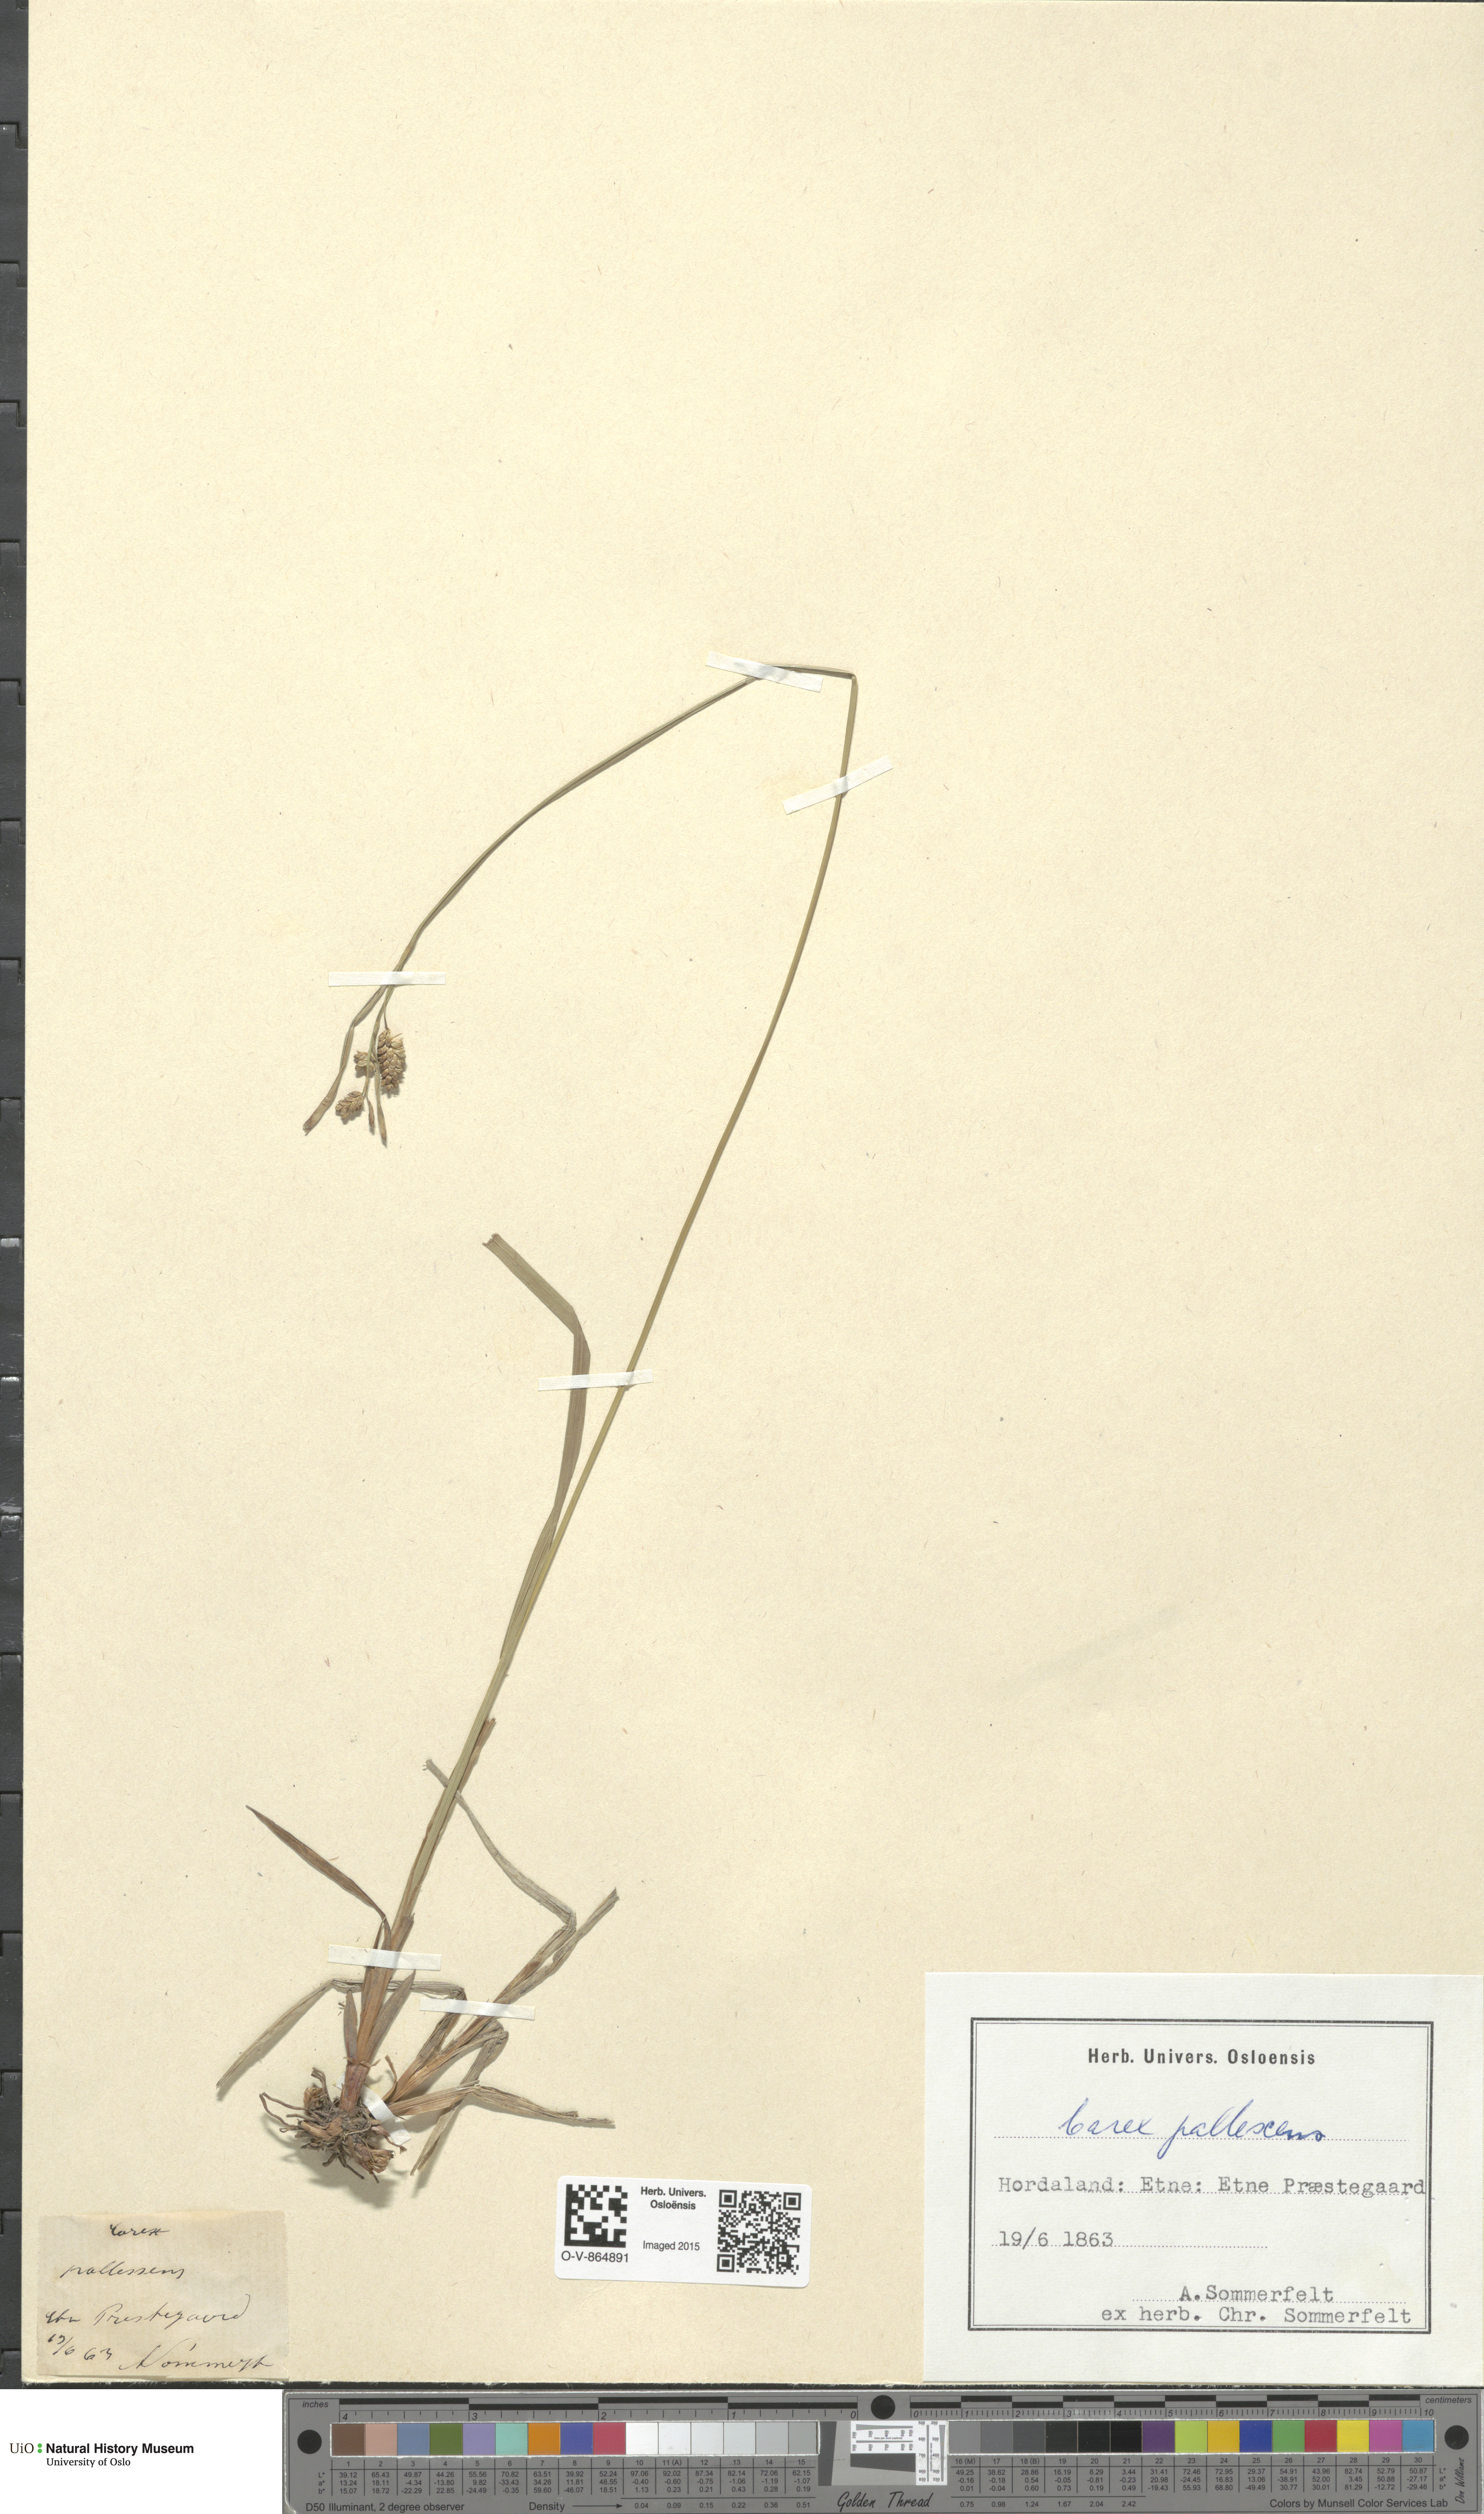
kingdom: Plantae
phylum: Tracheophyta
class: Liliopsida
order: Poales
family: Cyperaceae
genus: Carex
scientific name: Carex pallescens
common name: Pale sedge
